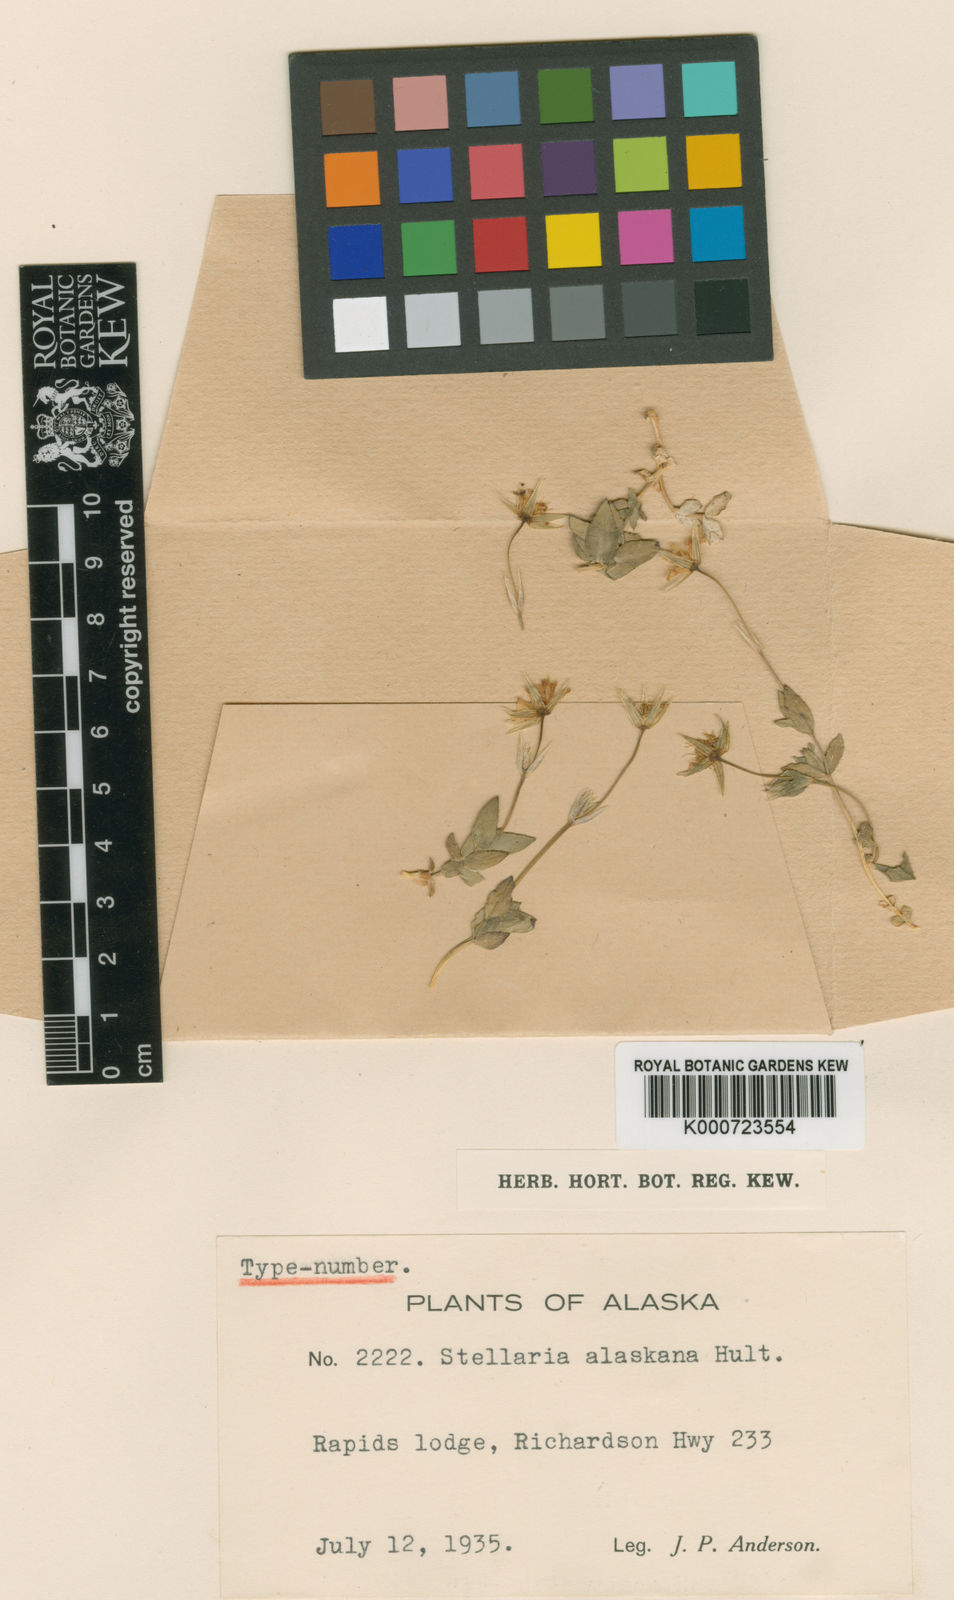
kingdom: Plantae
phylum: Tracheophyta
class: Magnoliopsida
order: Caryophyllales
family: Caryophyllaceae
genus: Stellaria
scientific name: Stellaria
